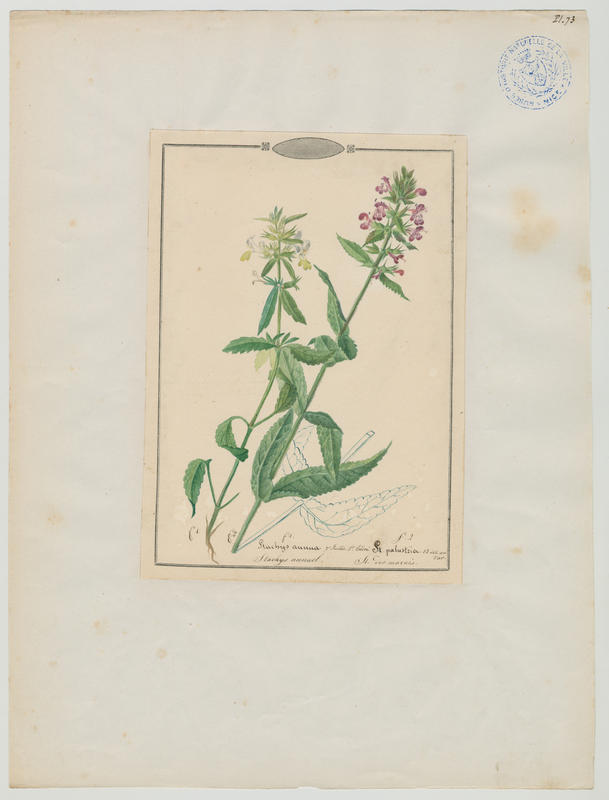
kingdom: Plantae
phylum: Tracheophyta
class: Magnoliopsida
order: Lamiales
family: Lamiaceae
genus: Stachys
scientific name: Stachys palustris
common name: Marsh woundwort
